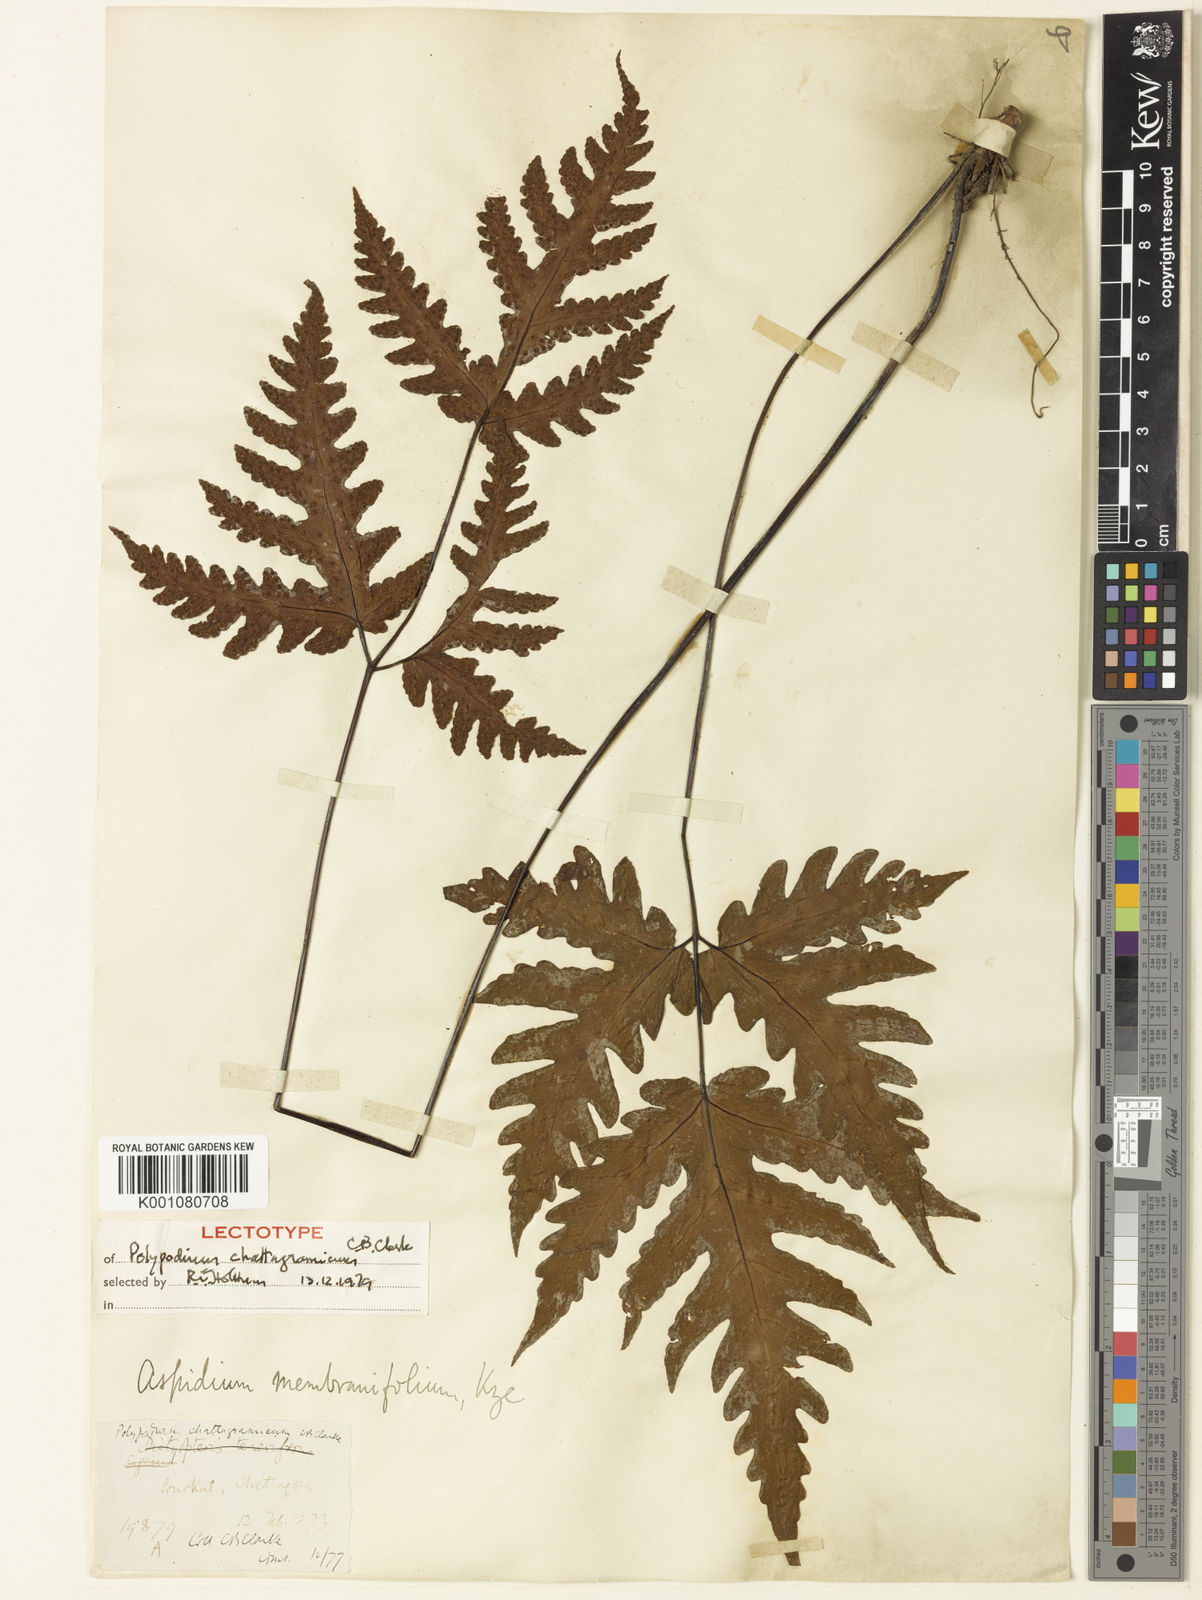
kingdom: Plantae
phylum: Tracheophyta
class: Polypodiopsida
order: Polypodiales
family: Tectariaceae
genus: Tectaria
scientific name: Tectaria chattagrammica
